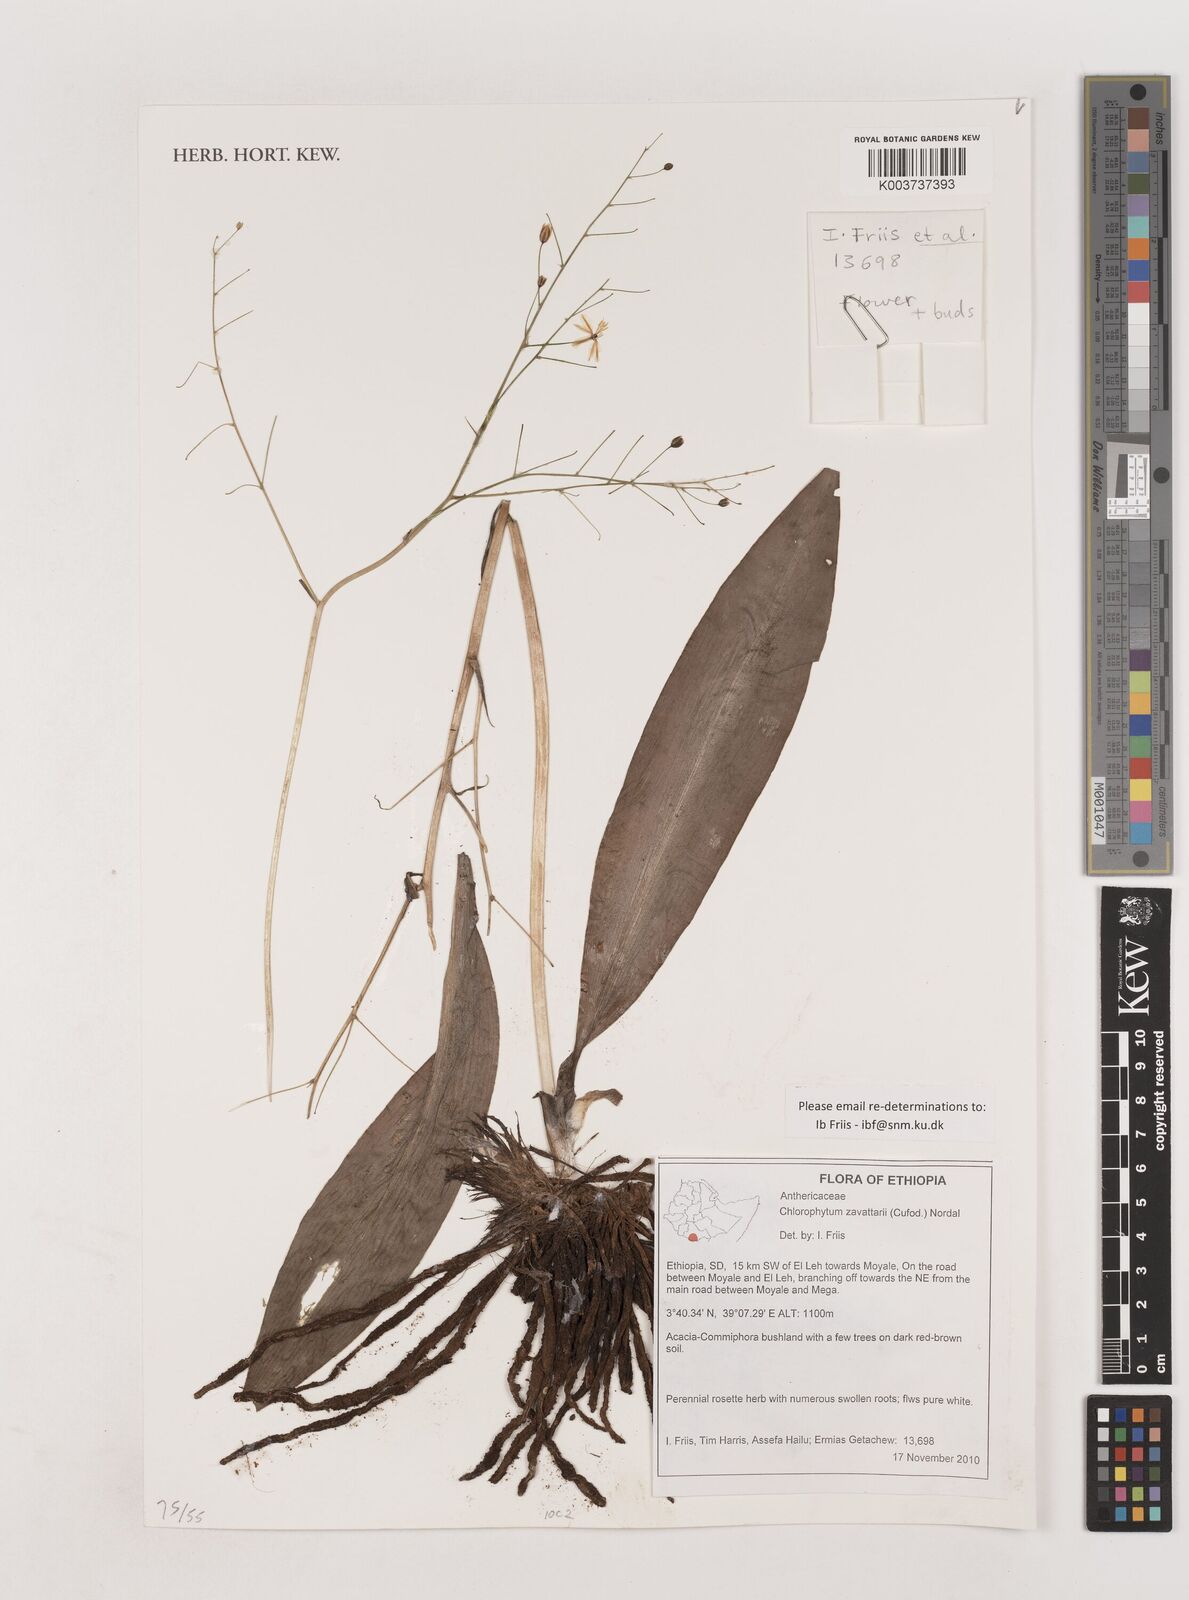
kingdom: Plantae
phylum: Tracheophyta
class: Liliopsida
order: Asparagales
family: Asparagaceae
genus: Chlorophytum
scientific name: Chlorophytum zavattarii
